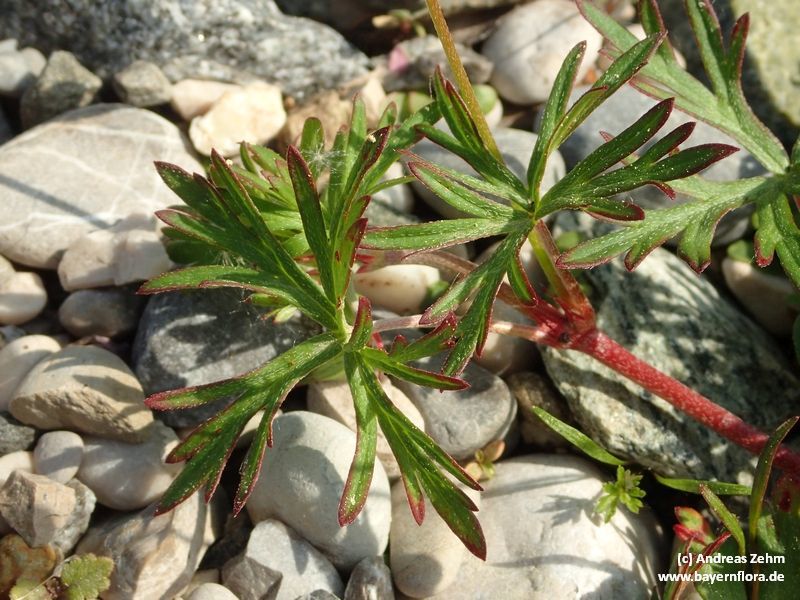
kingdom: Plantae
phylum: Tracheophyta
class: Magnoliopsida
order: Geraniales
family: Geraniaceae
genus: Geranium
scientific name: Geranium columbinum
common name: Long-stalked crane's-bill
